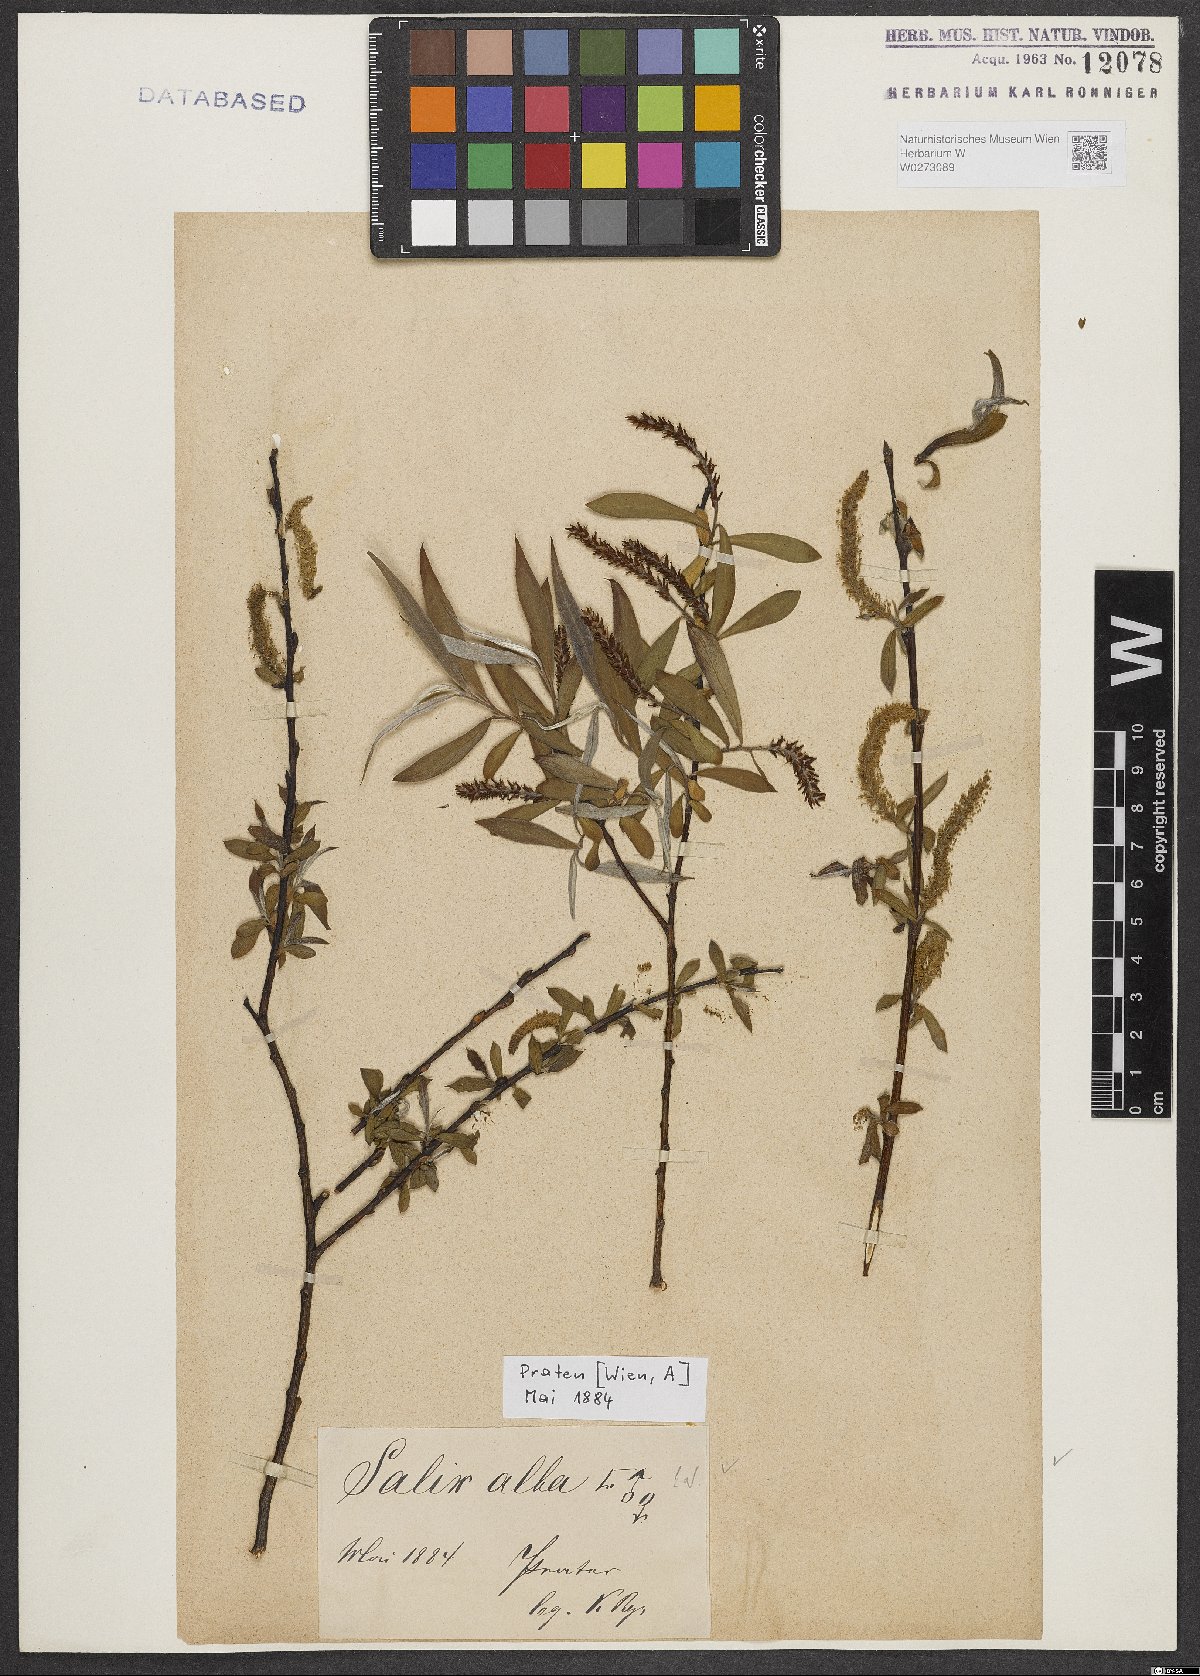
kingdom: Plantae
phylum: Tracheophyta
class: Magnoliopsida
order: Malpighiales
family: Salicaceae
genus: Salix
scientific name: Salix alba
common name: White willow
